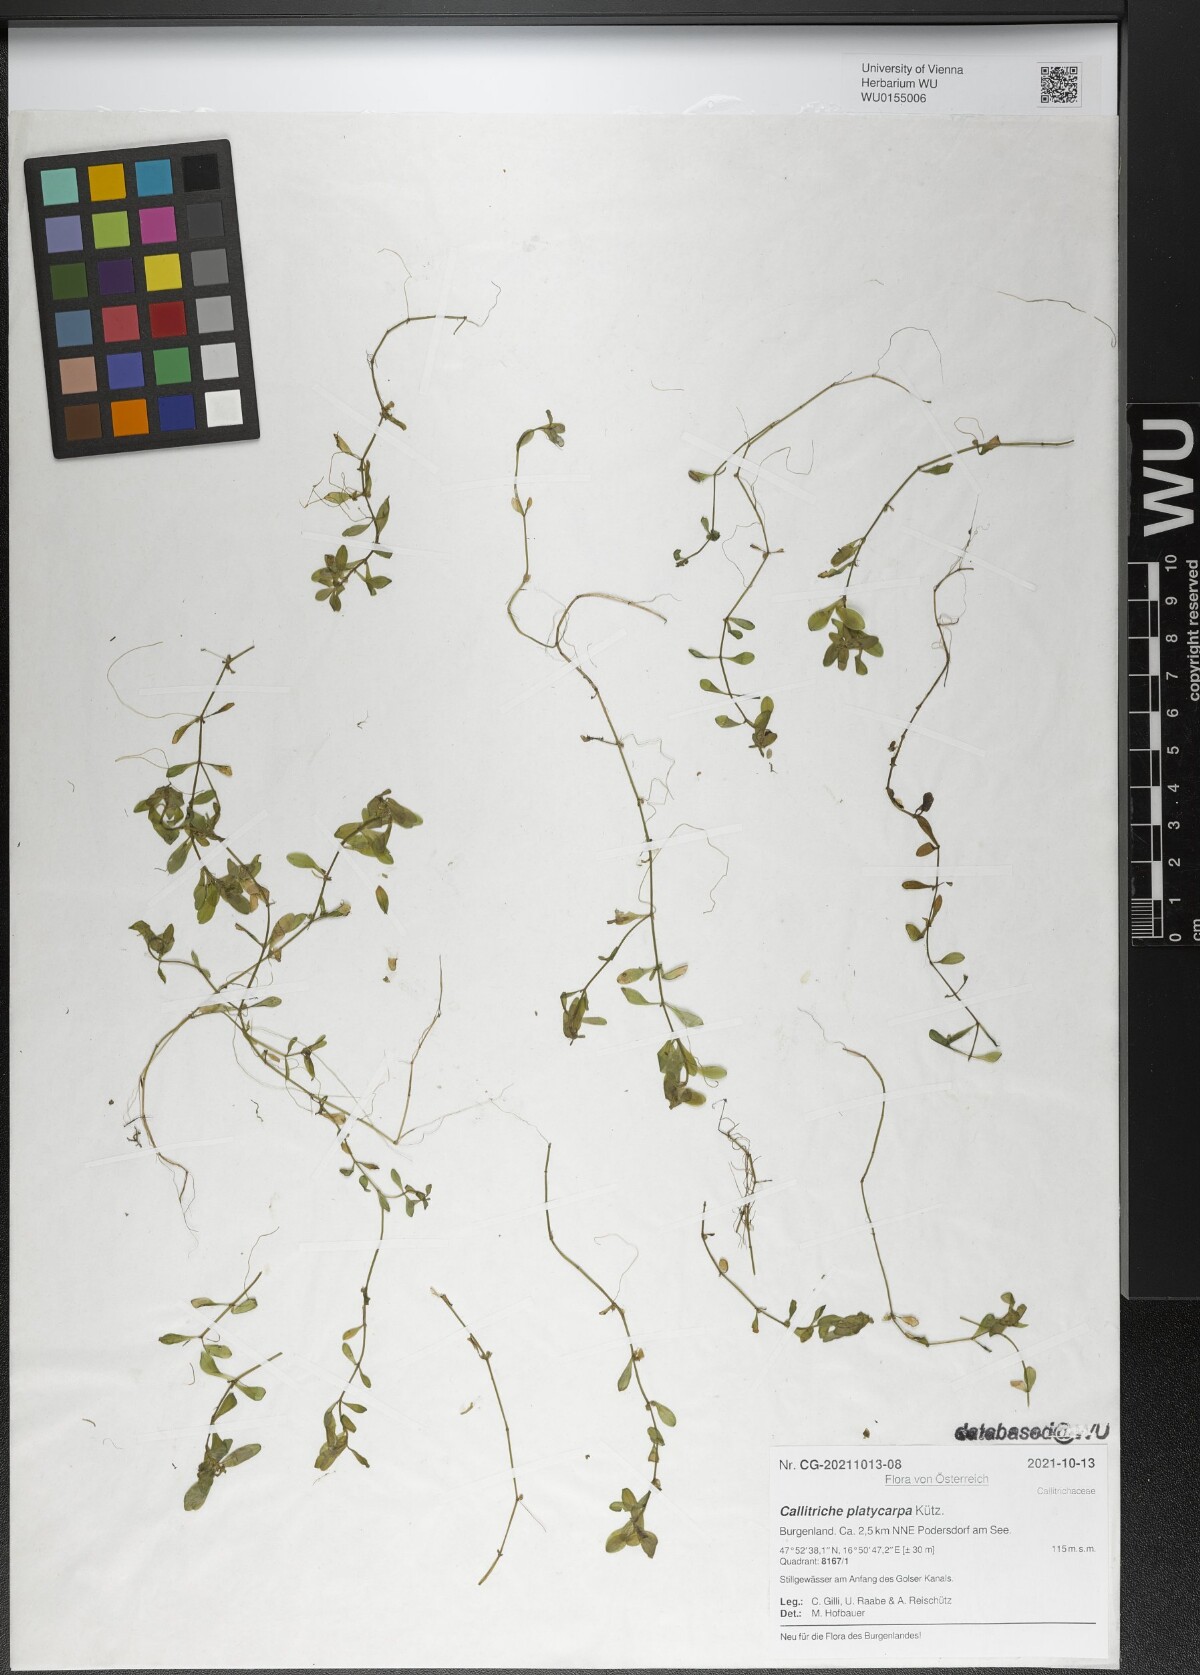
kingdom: Plantae
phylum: Tracheophyta
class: Magnoliopsida
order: Lamiales
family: Plantaginaceae
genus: Callitriche
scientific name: Callitriche platycarpa
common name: Various-leaved water-starwort
